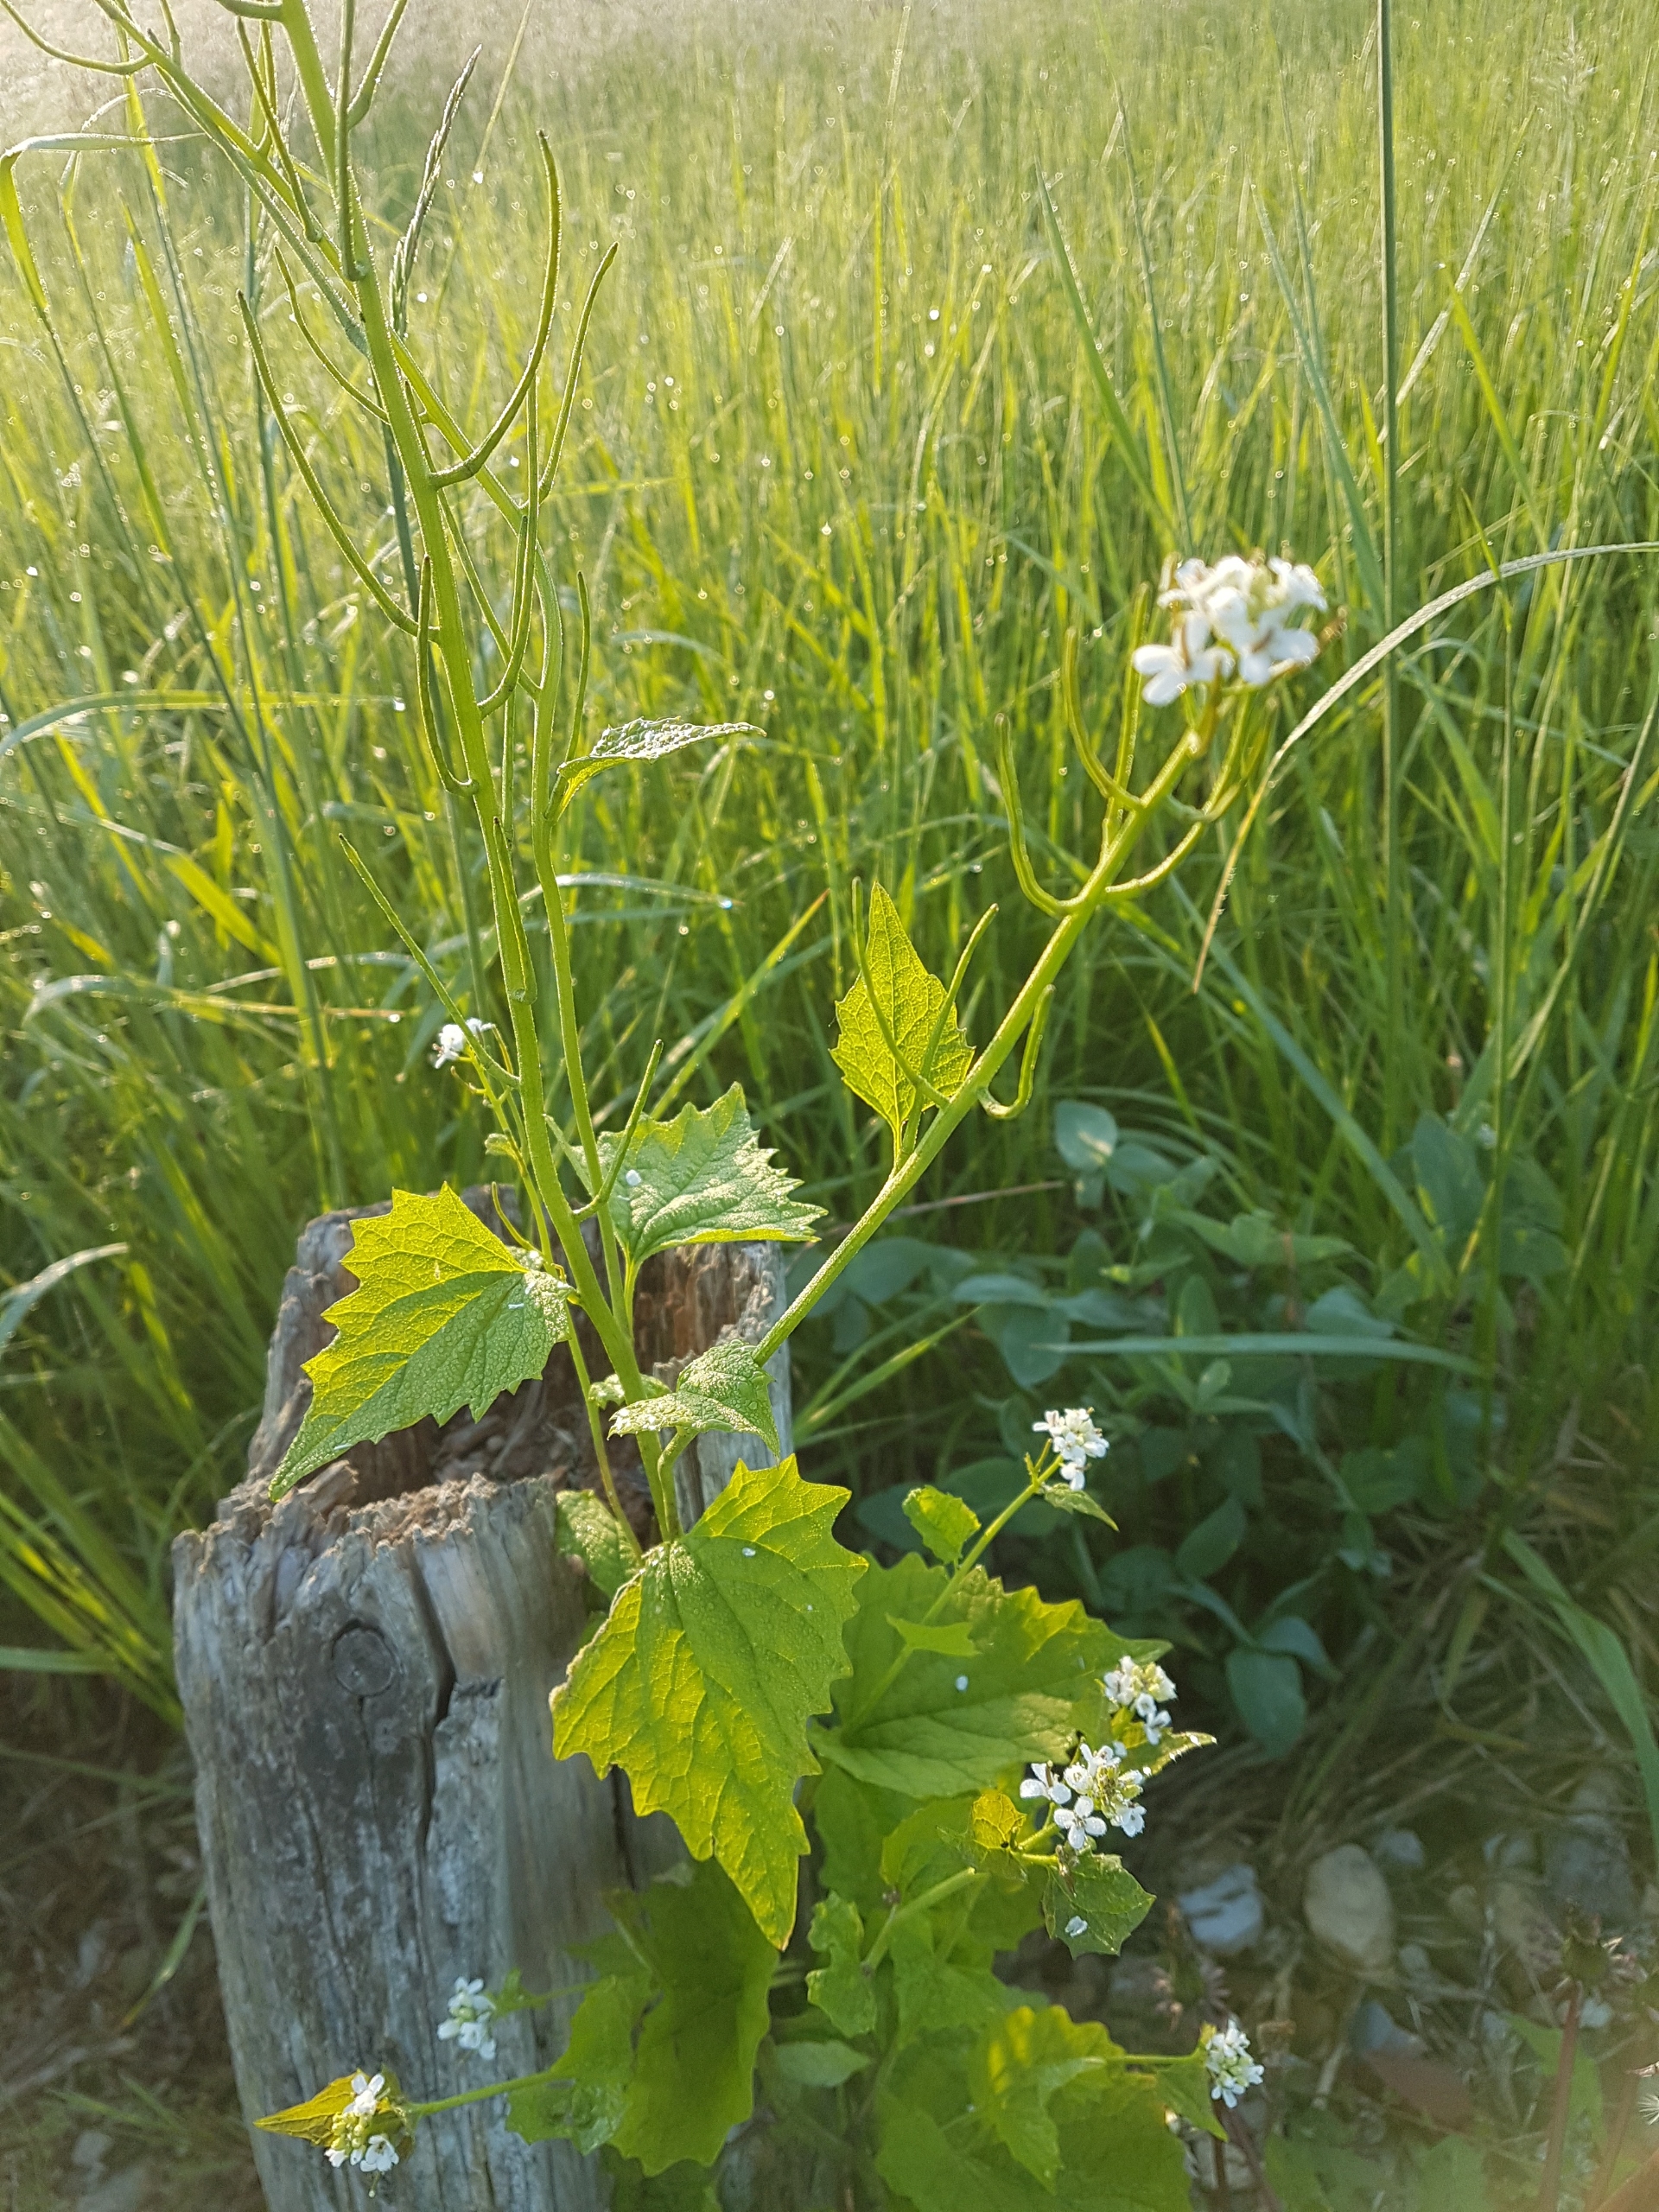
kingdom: Plantae
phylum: Tracheophyta
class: Magnoliopsida
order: Brassicales
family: Brassicaceae
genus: Alliaria
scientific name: Alliaria petiolata
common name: Løgkarse
